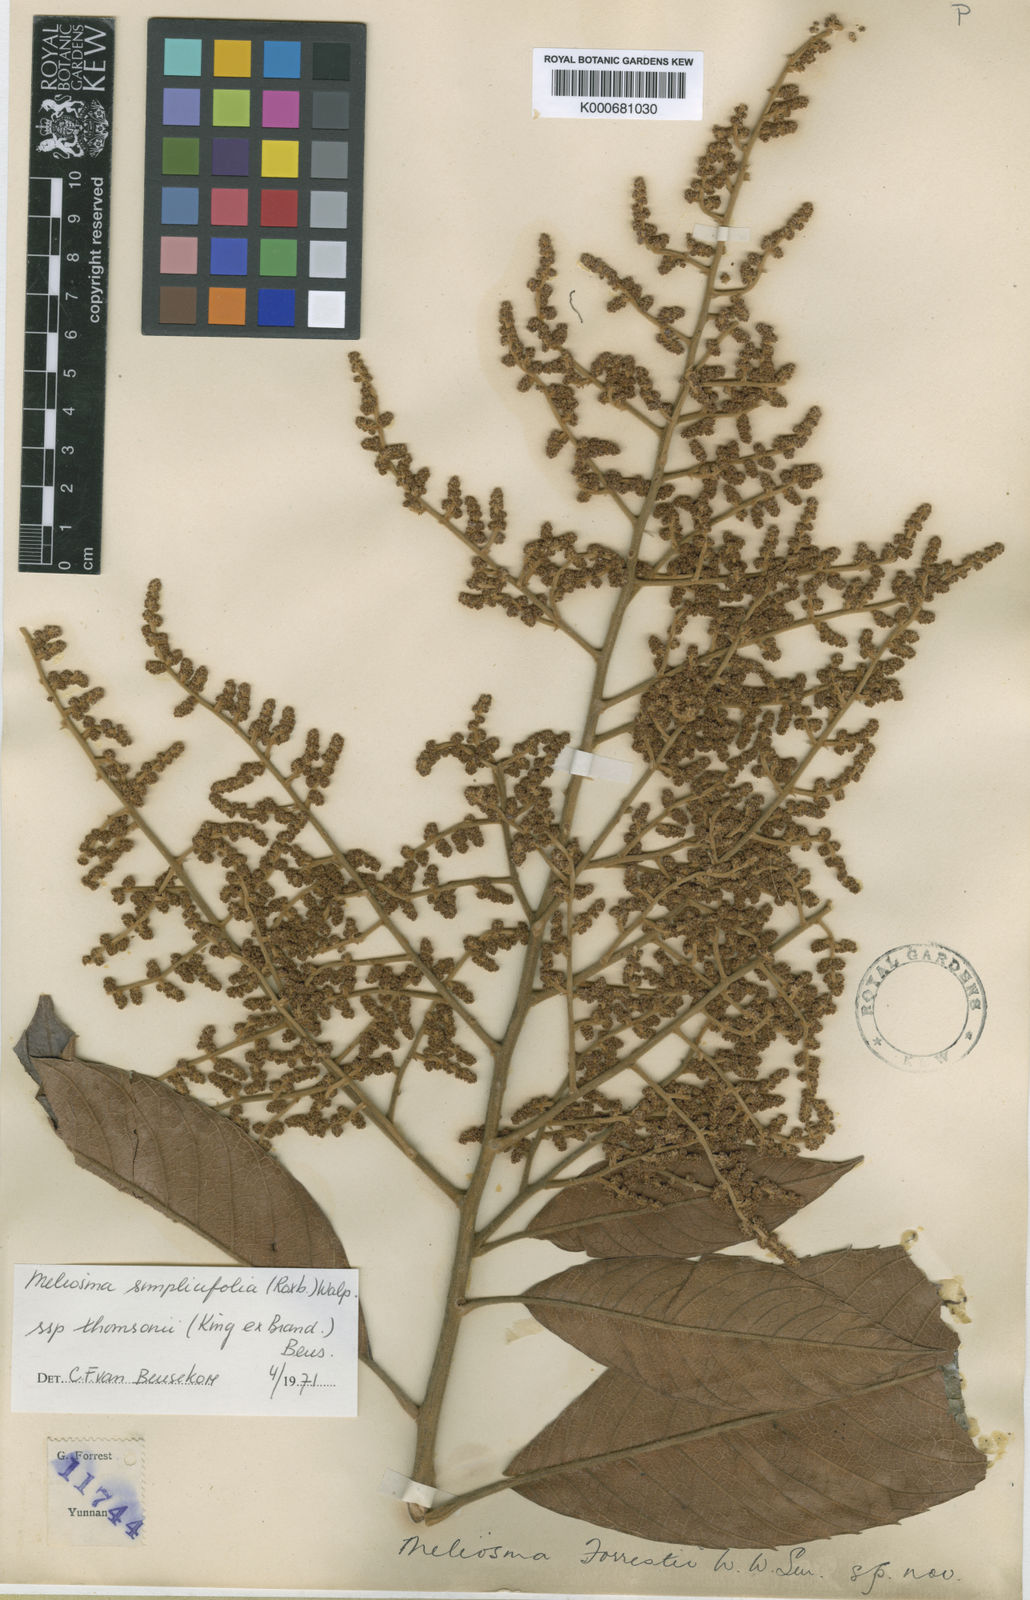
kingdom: Plantae
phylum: Tracheophyta
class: Magnoliopsida
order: Proteales
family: Sabiaceae
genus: Meliosma
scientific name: Meliosma thomsonii
